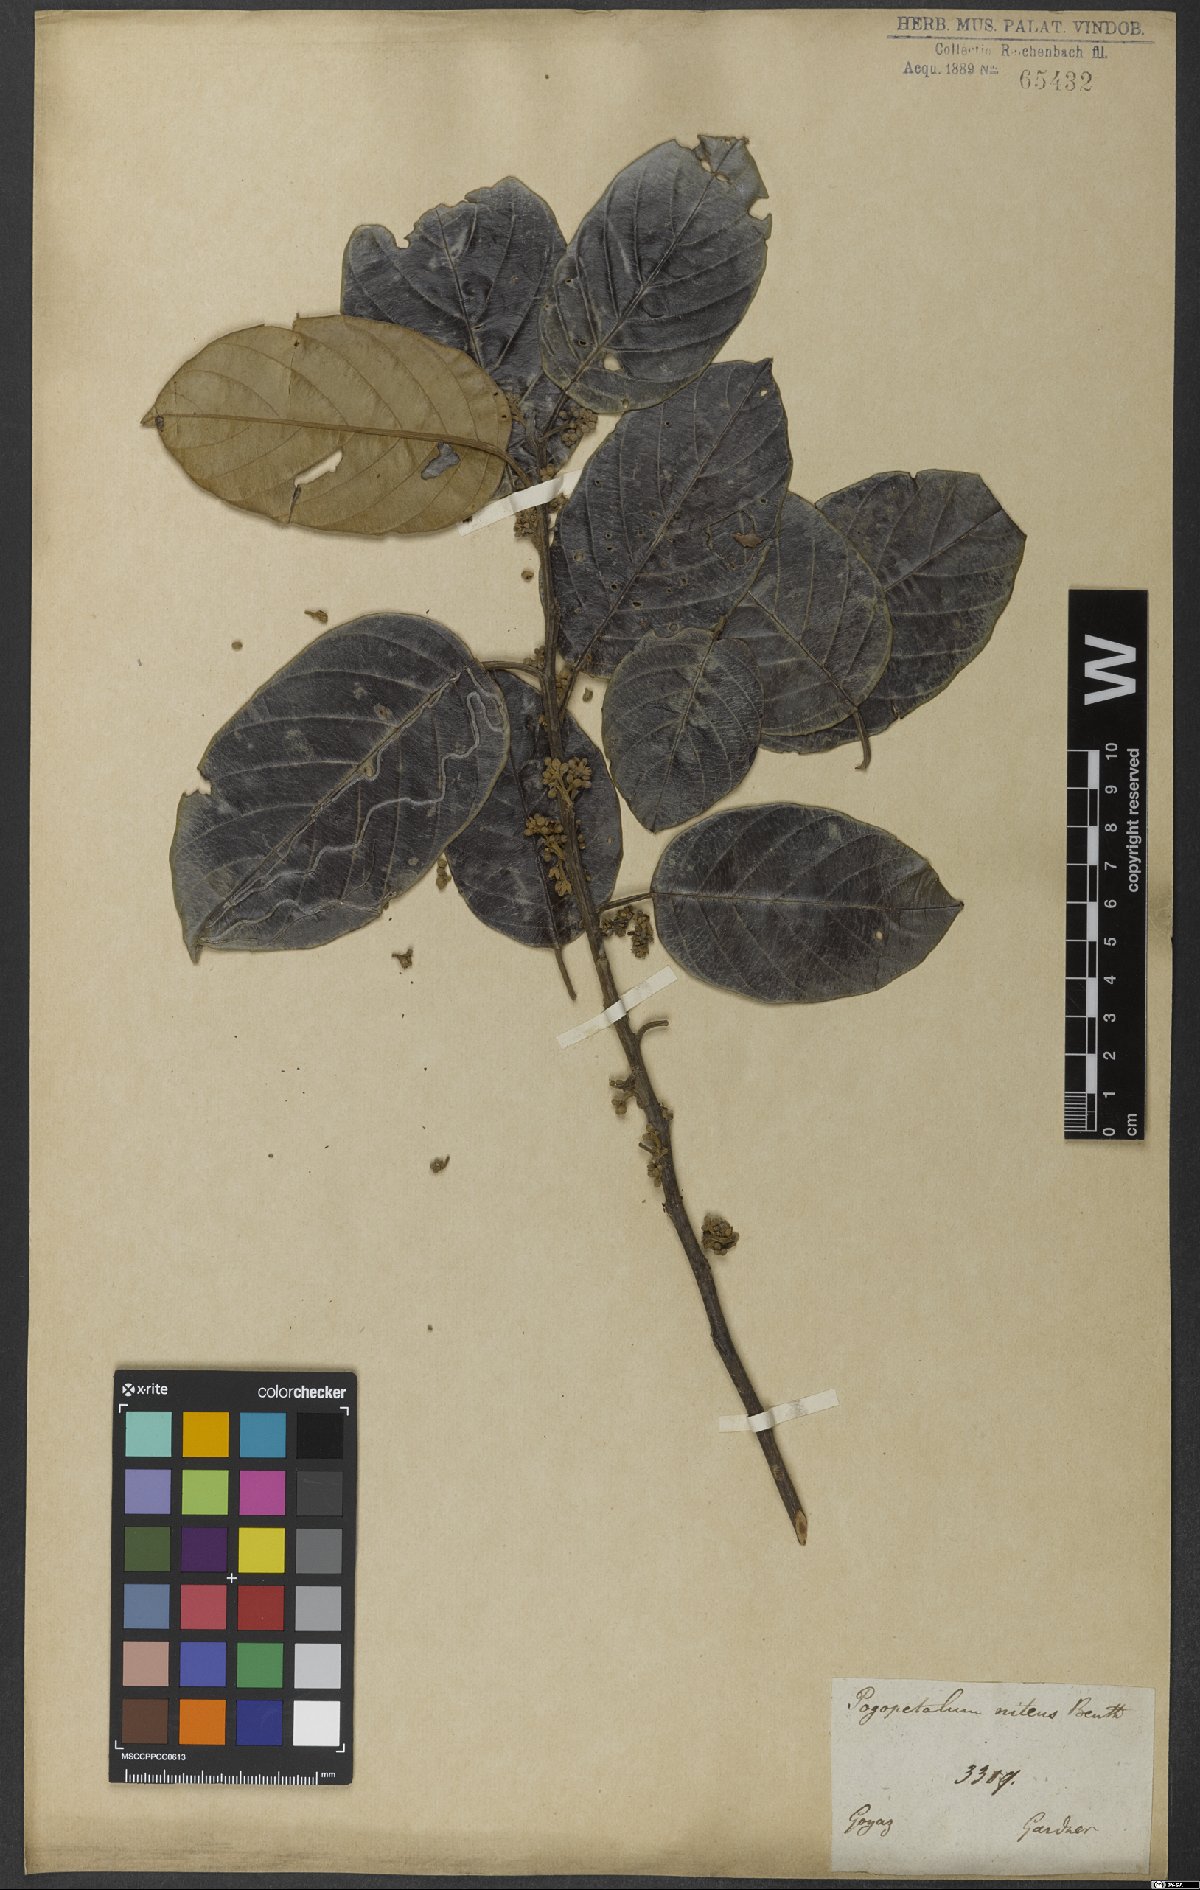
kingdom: Plantae
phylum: Tracheophyta
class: Magnoliopsida
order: Metteniusales
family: Metteniusaceae
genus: Emmotum
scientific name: Emmotum nitens
